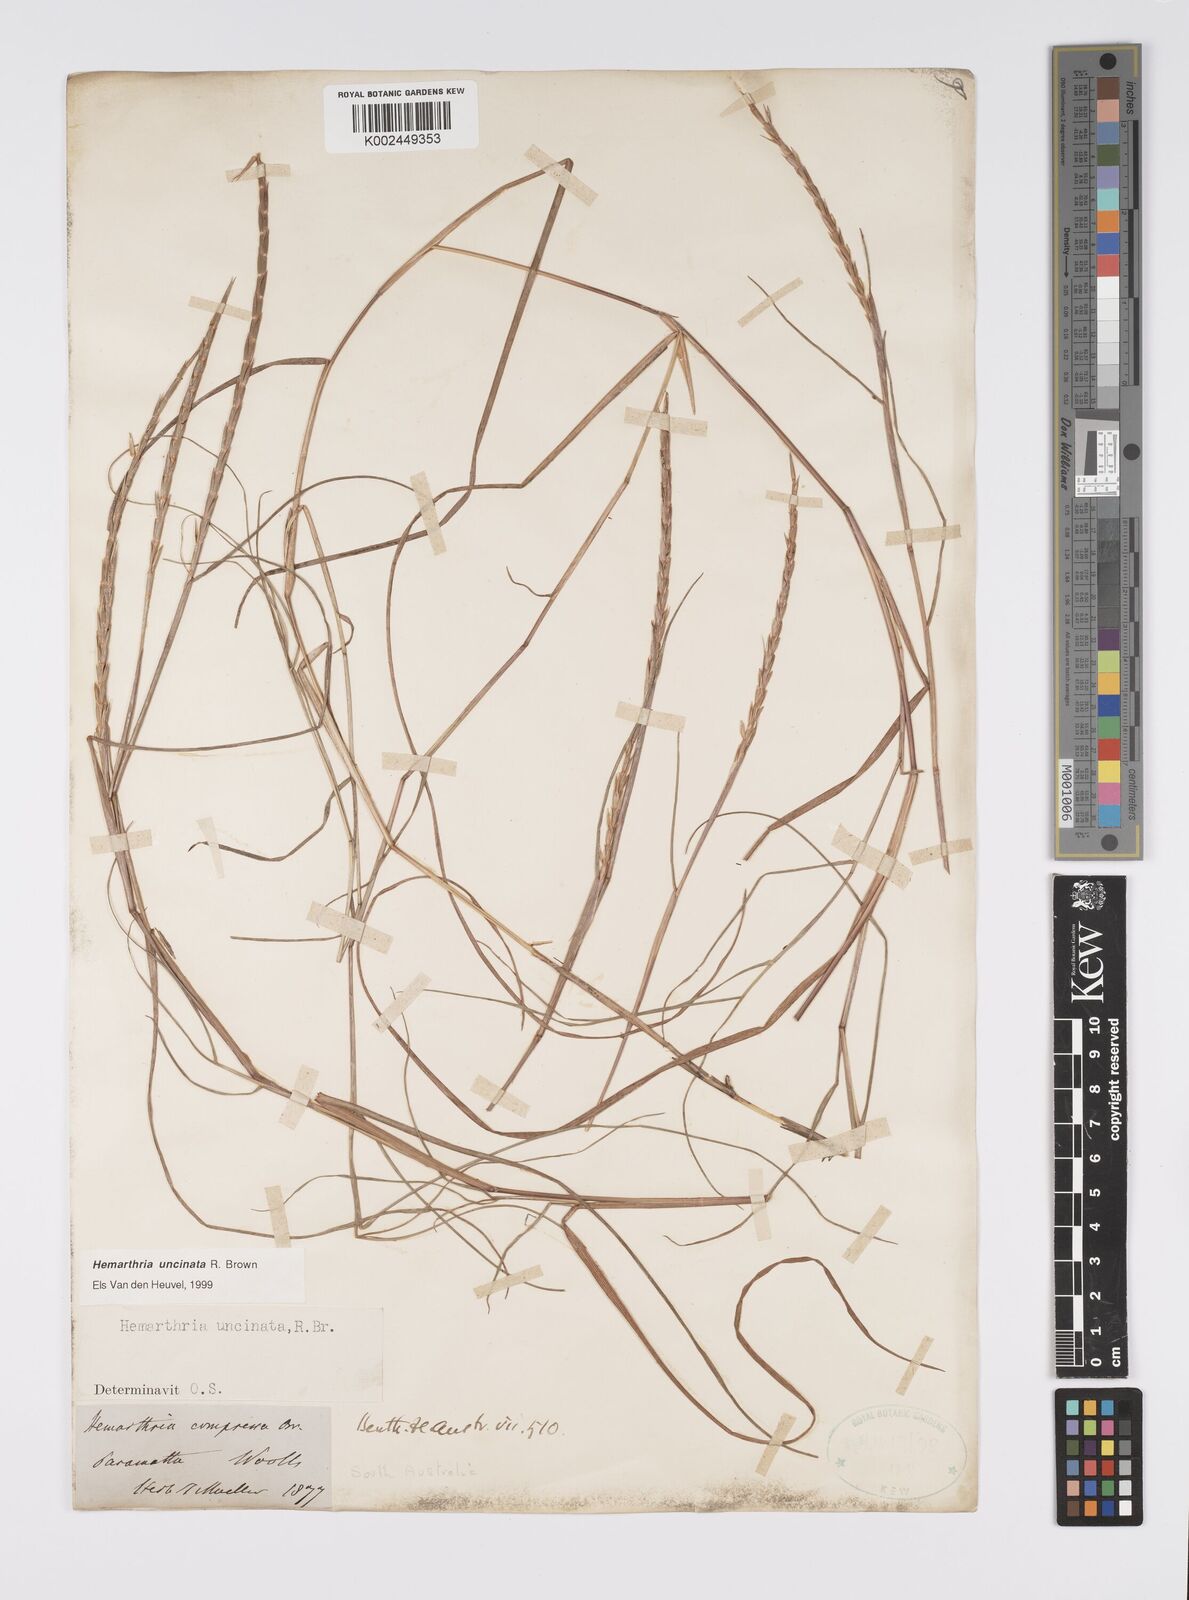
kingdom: Plantae
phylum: Tracheophyta
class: Liliopsida
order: Poales
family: Poaceae
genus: Hemarthria
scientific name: Hemarthria uncinata
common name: Matgrass
